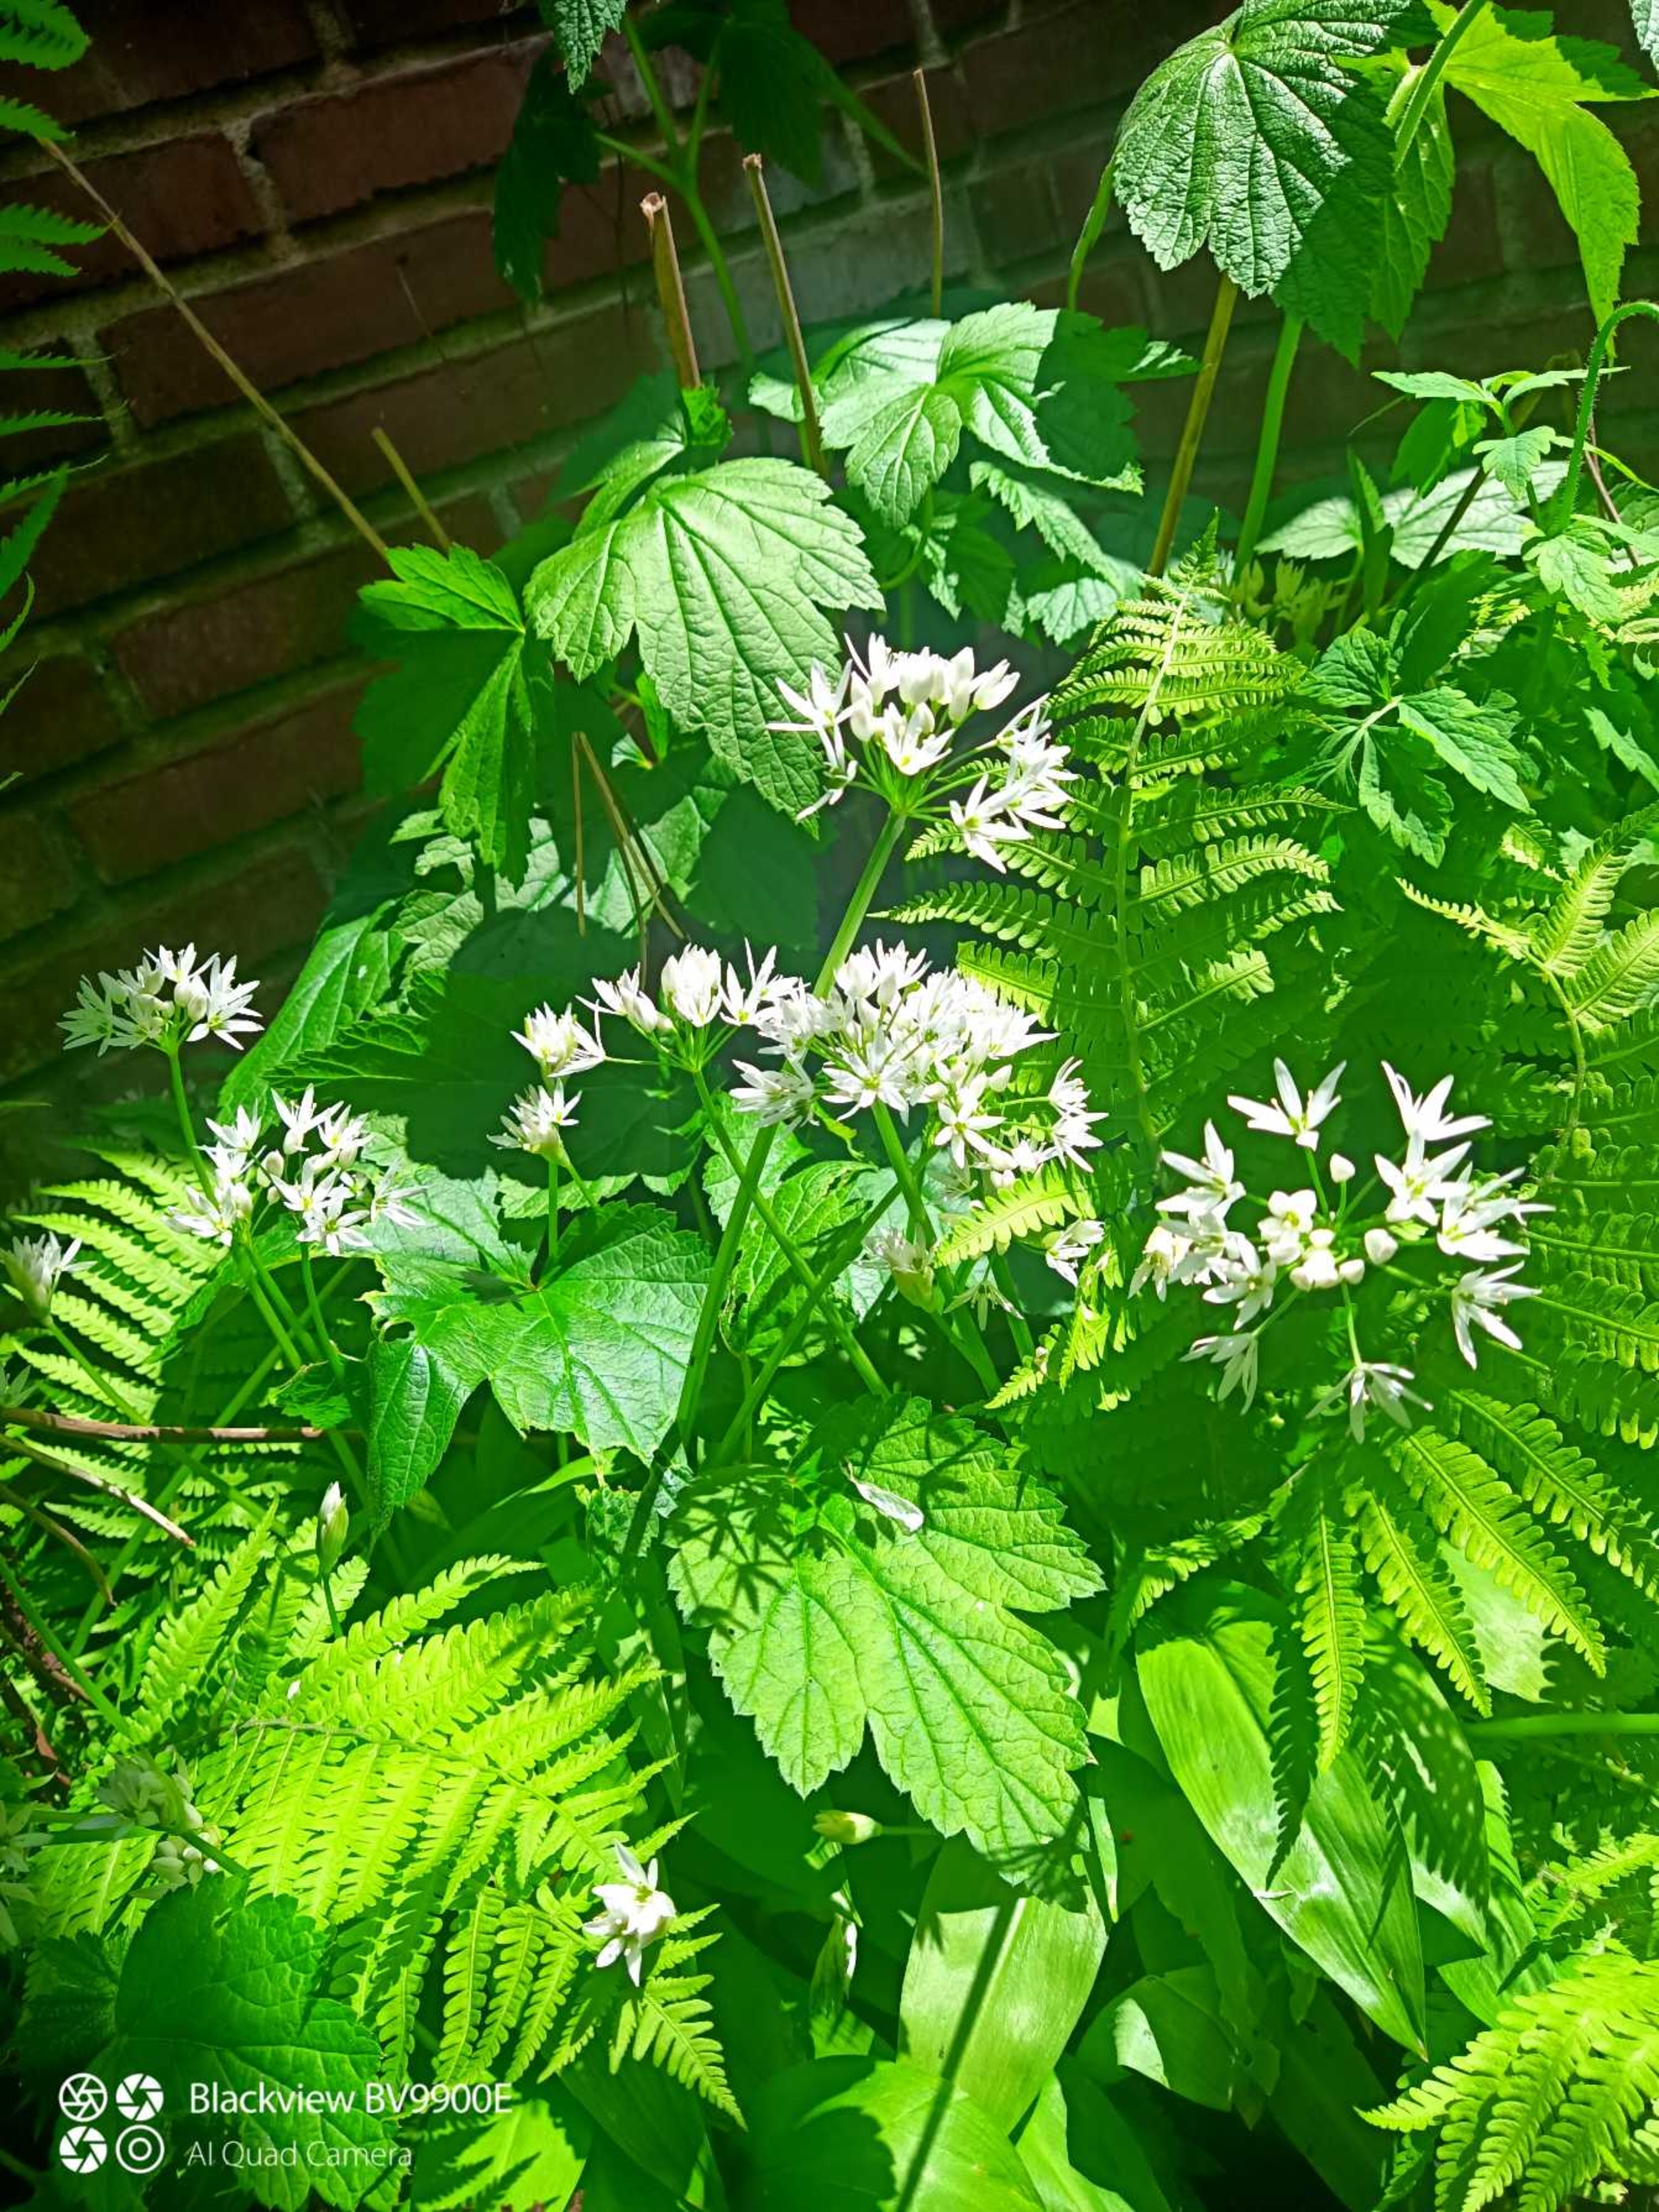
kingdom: Plantae
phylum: Tracheophyta
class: Liliopsida
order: Asparagales
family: Amaryllidaceae
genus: Allium
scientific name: Allium ursinum
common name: Rams-løg
